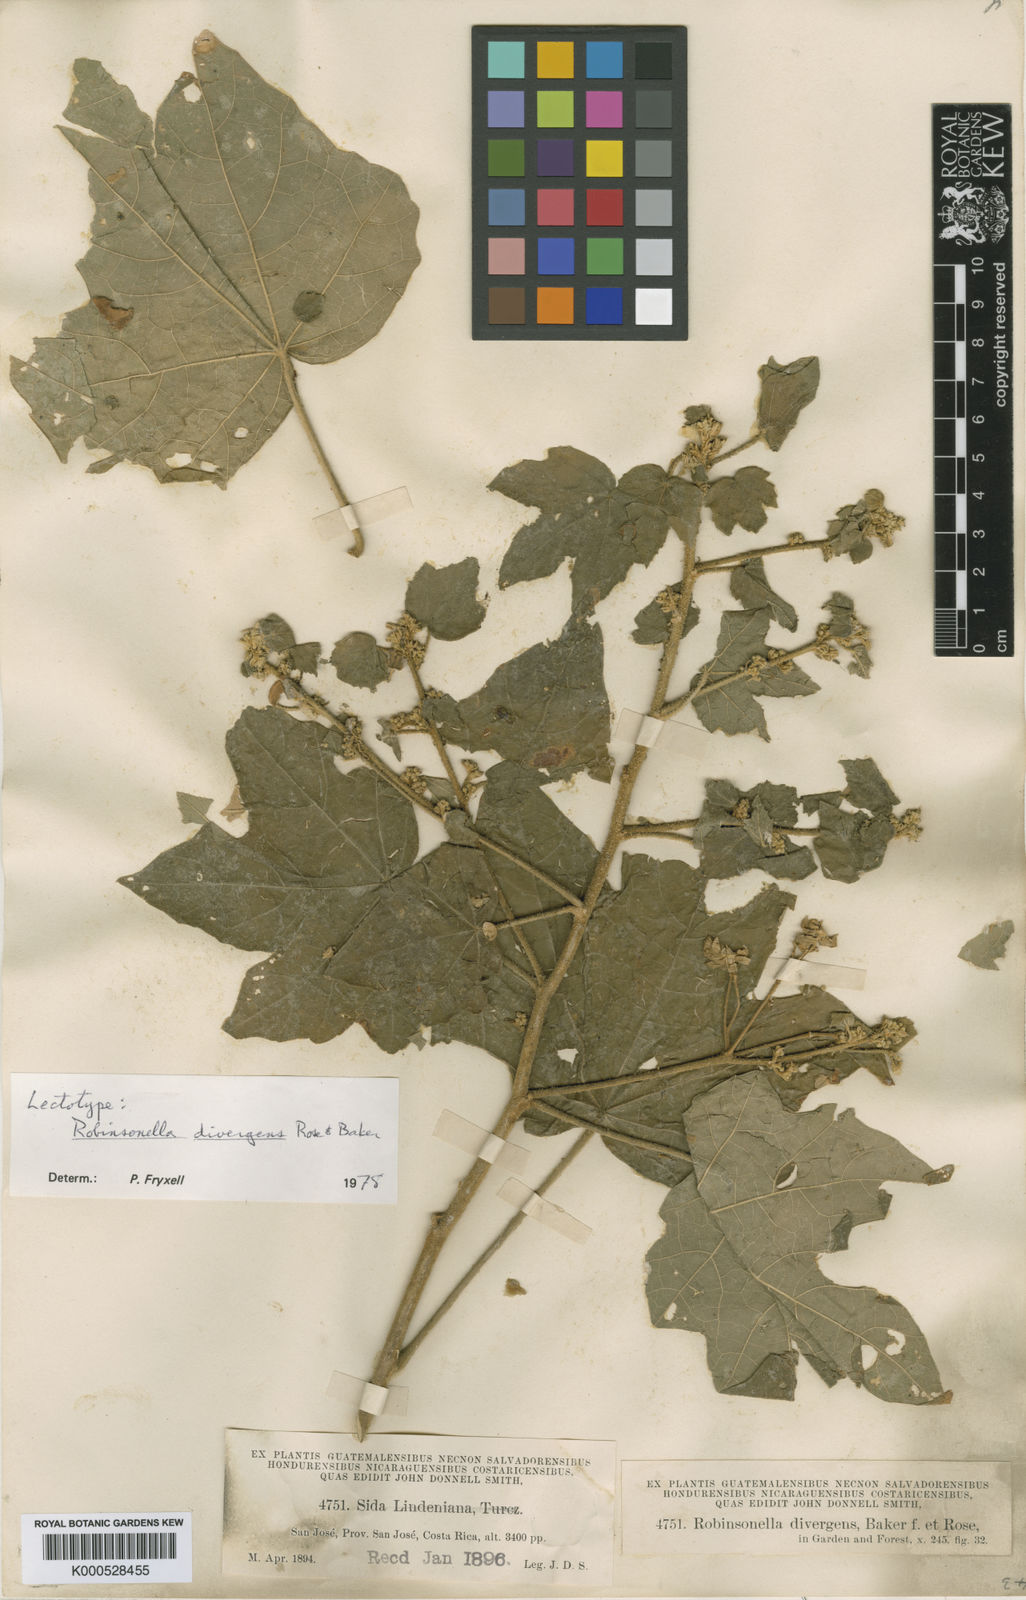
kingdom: Plantae
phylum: Tracheophyta
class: Magnoliopsida
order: Malvales
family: Malvaceae
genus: Robinsonella
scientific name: Robinsonella lindeniana
